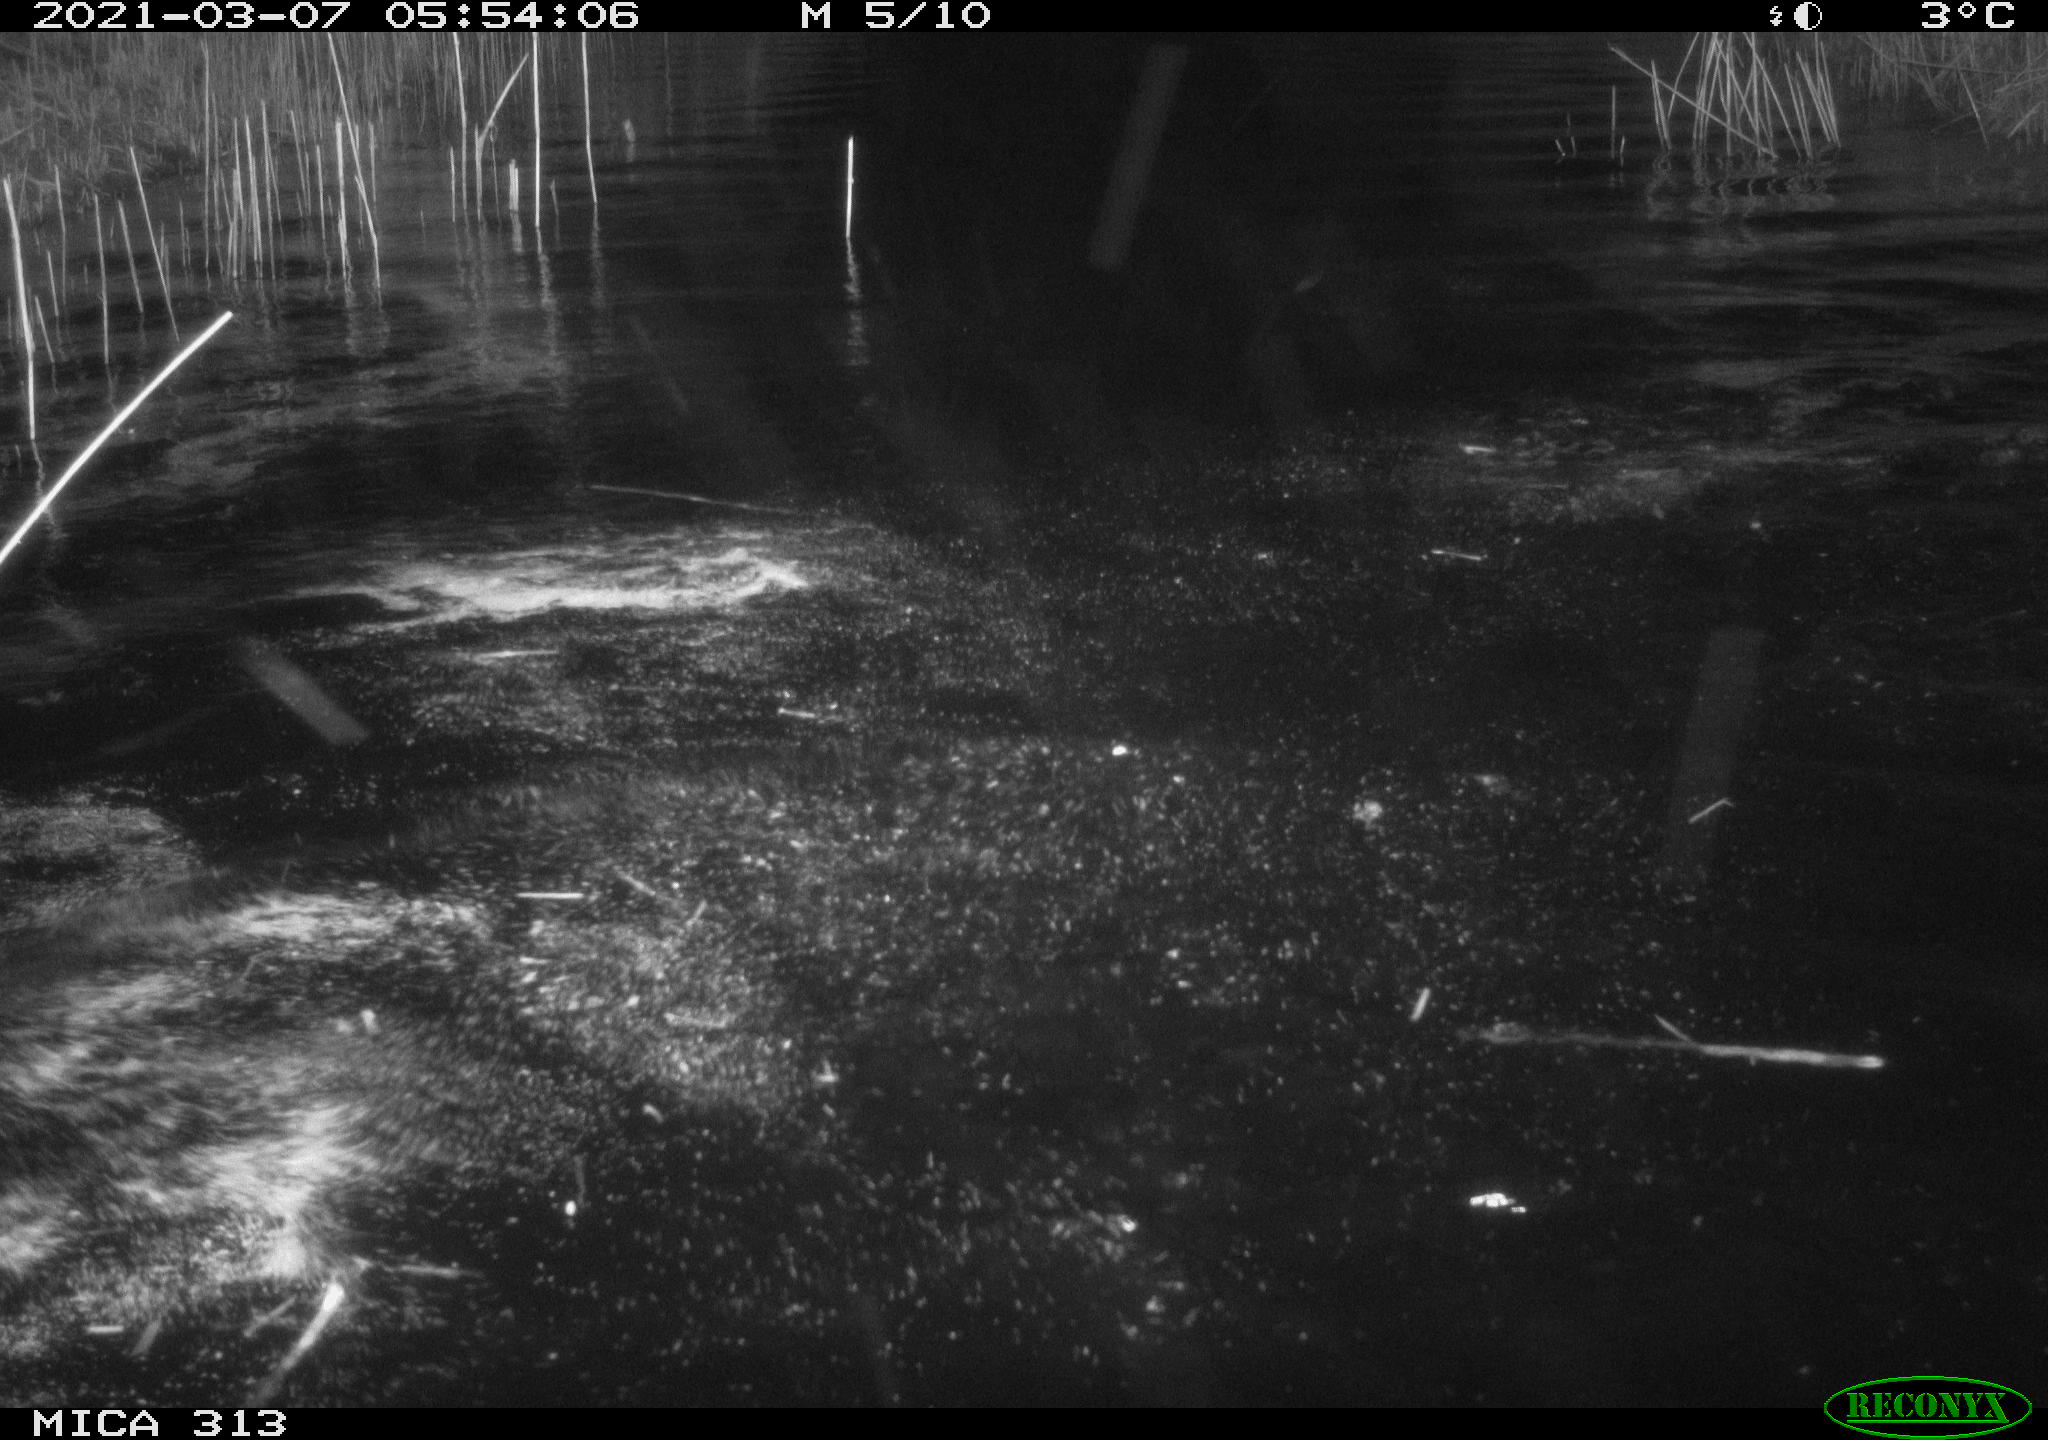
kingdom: Animalia
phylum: Chordata
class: Aves
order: Anseriformes
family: Anatidae
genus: Anas
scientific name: Anas platyrhynchos
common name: Mallard
